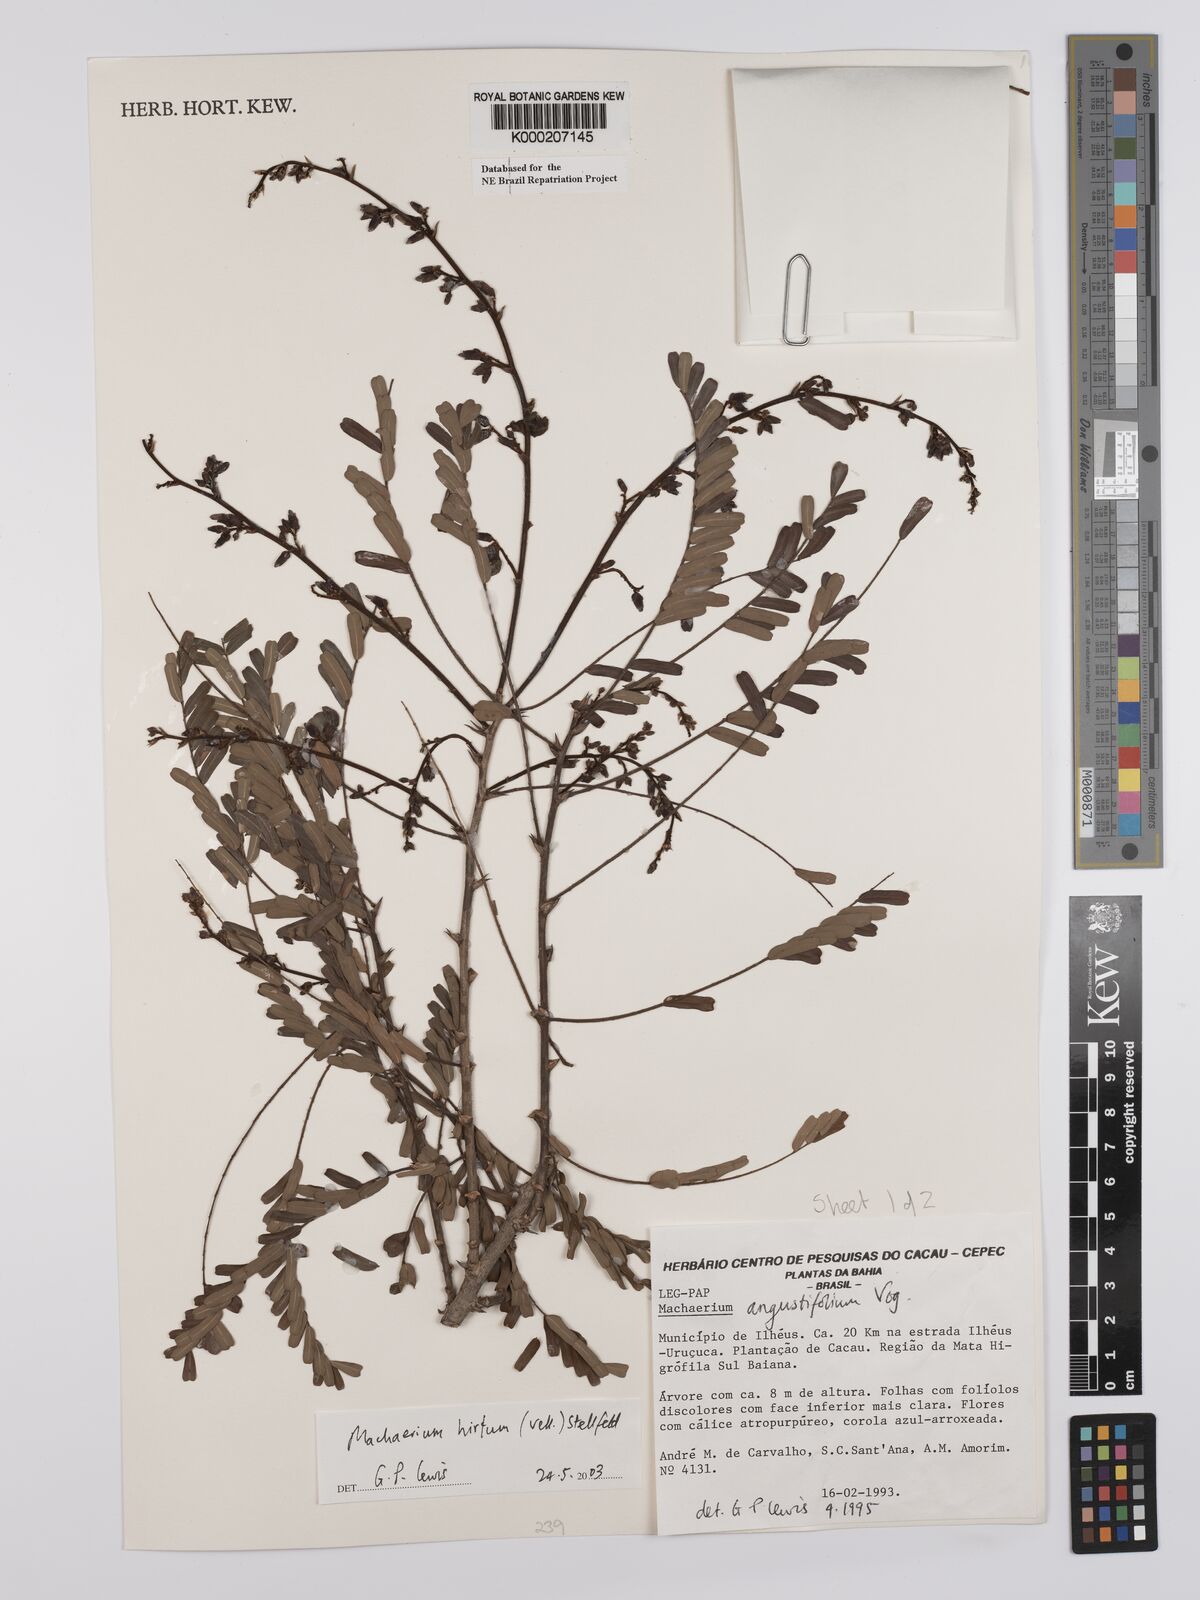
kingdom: Plantae
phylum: Tracheophyta
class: Magnoliopsida
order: Fabales
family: Fabaceae
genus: Machaerium
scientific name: Machaerium hirtum
